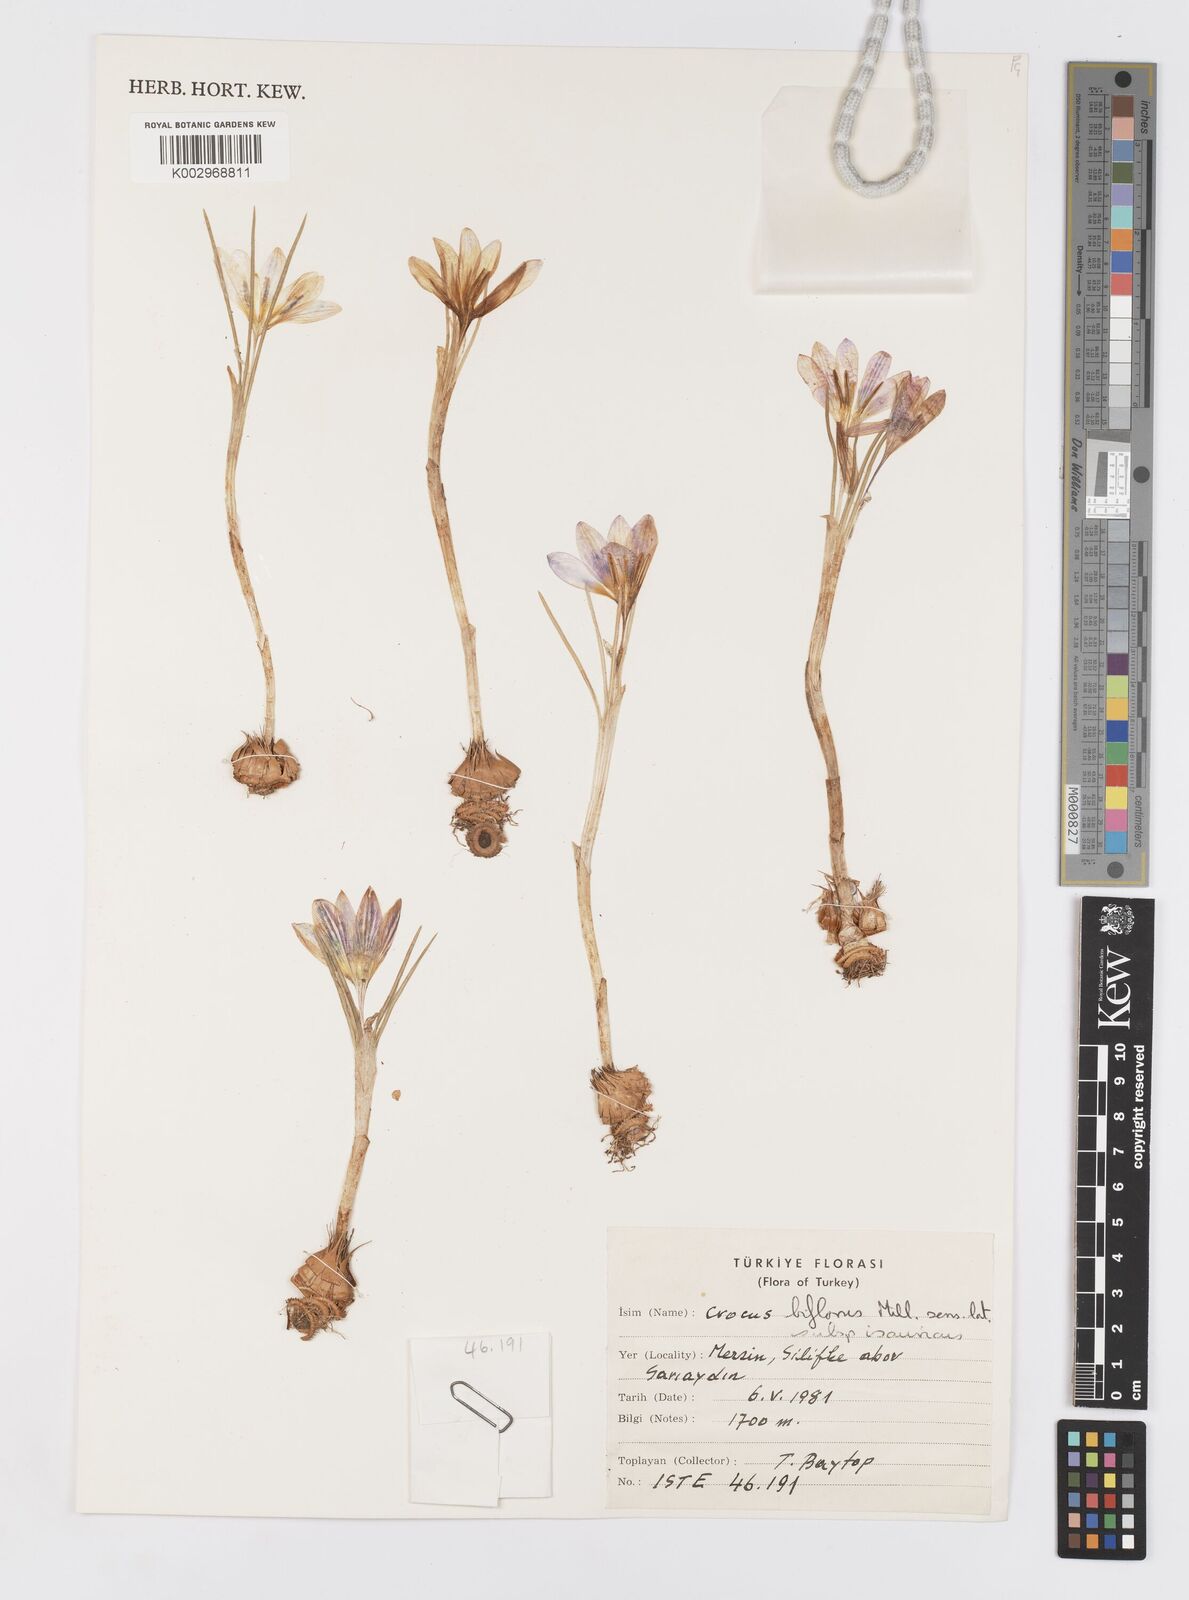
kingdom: Plantae
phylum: Tracheophyta
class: Liliopsida
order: Asparagales
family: Iridaceae
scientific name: Iridaceae
